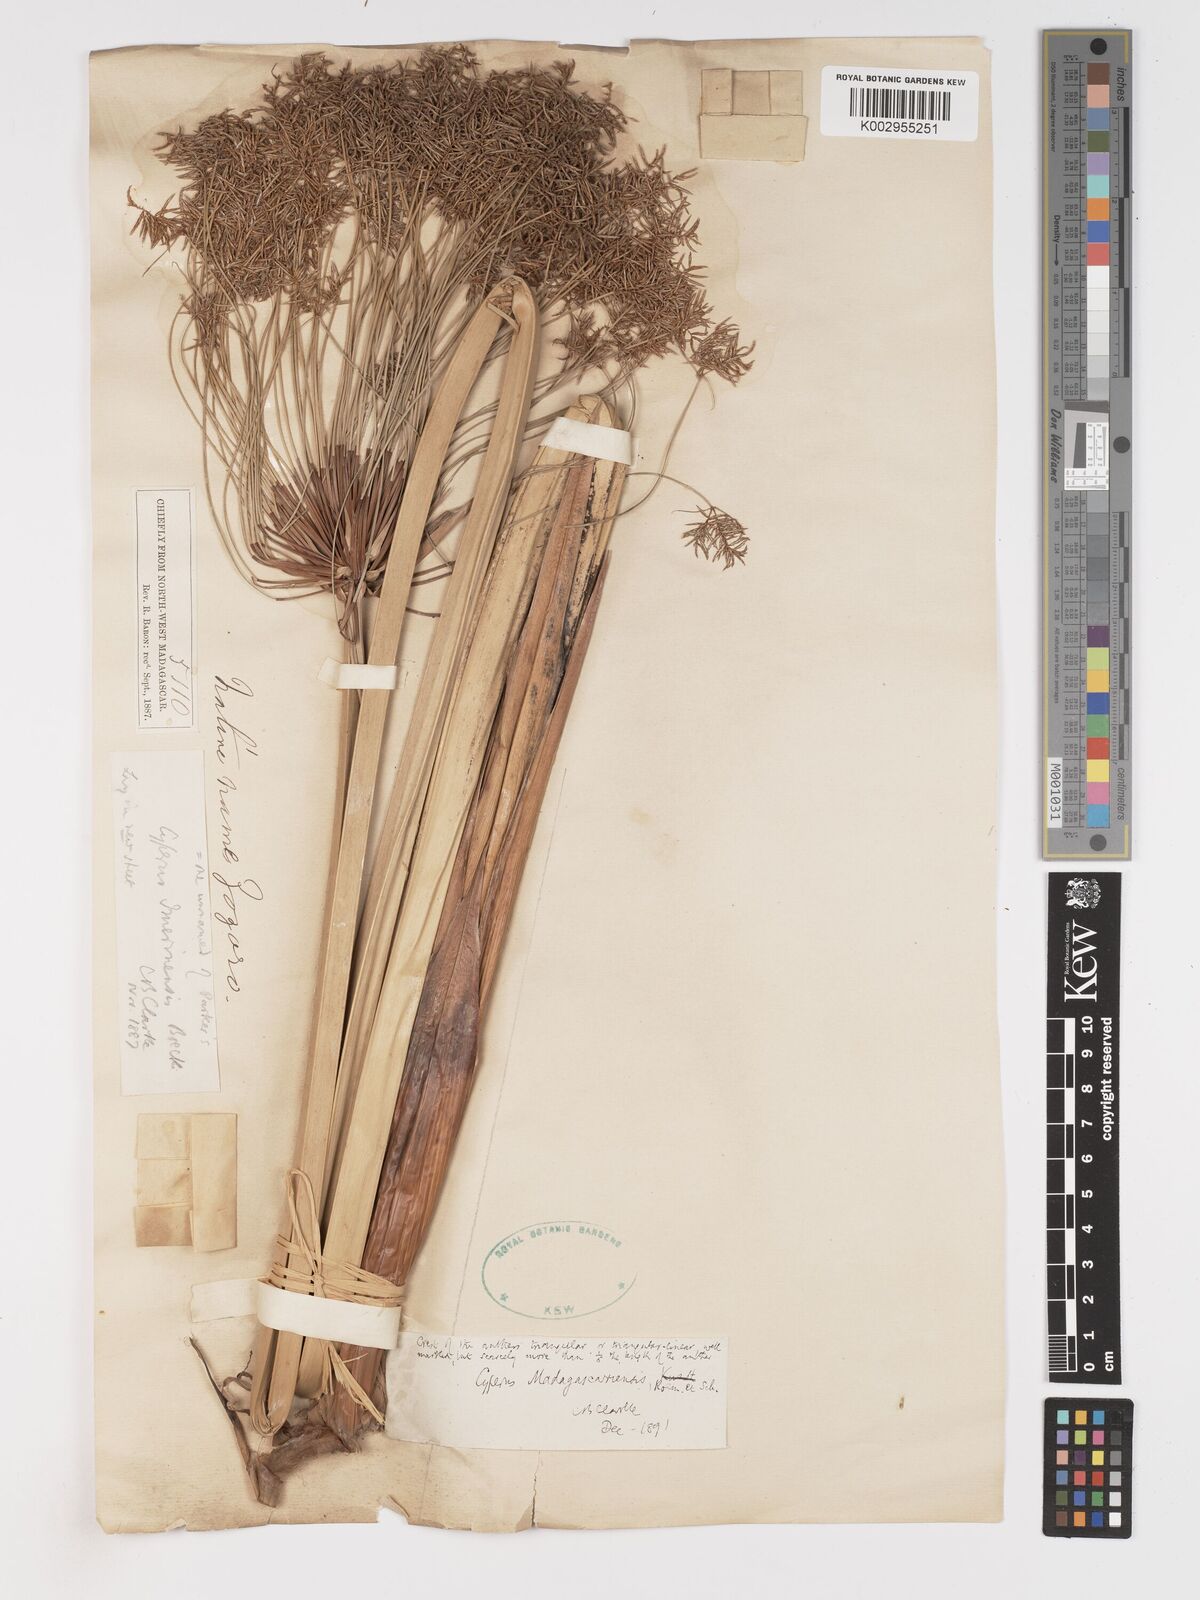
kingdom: Plantae
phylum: Tracheophyta
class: Liliopsida
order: Poales
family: Cyperaceae
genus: Cyperus
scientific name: Cyperus papyrus
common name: Papyrus
